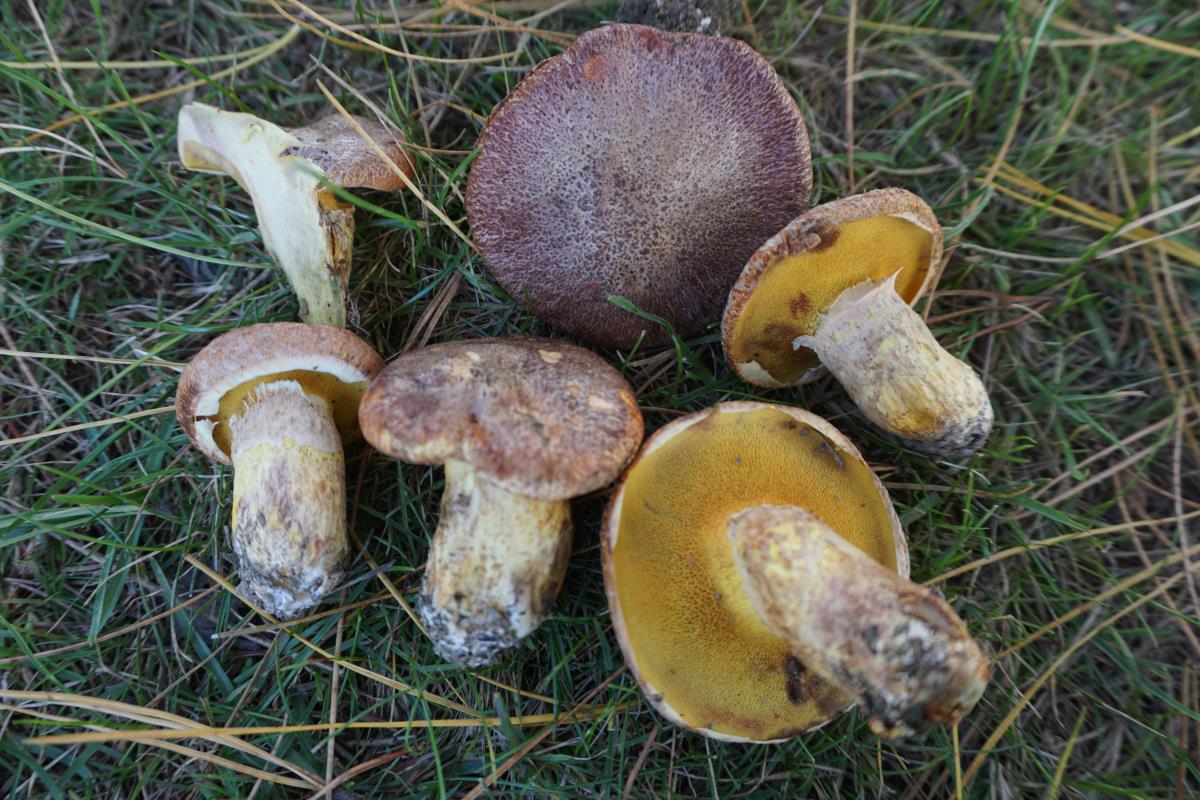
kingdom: Fungi
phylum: Basidiomycota
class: Agaricomycetes
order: Boletales
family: Suillaceae
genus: Suillus
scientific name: Suillus lakei
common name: Western painted suillus
